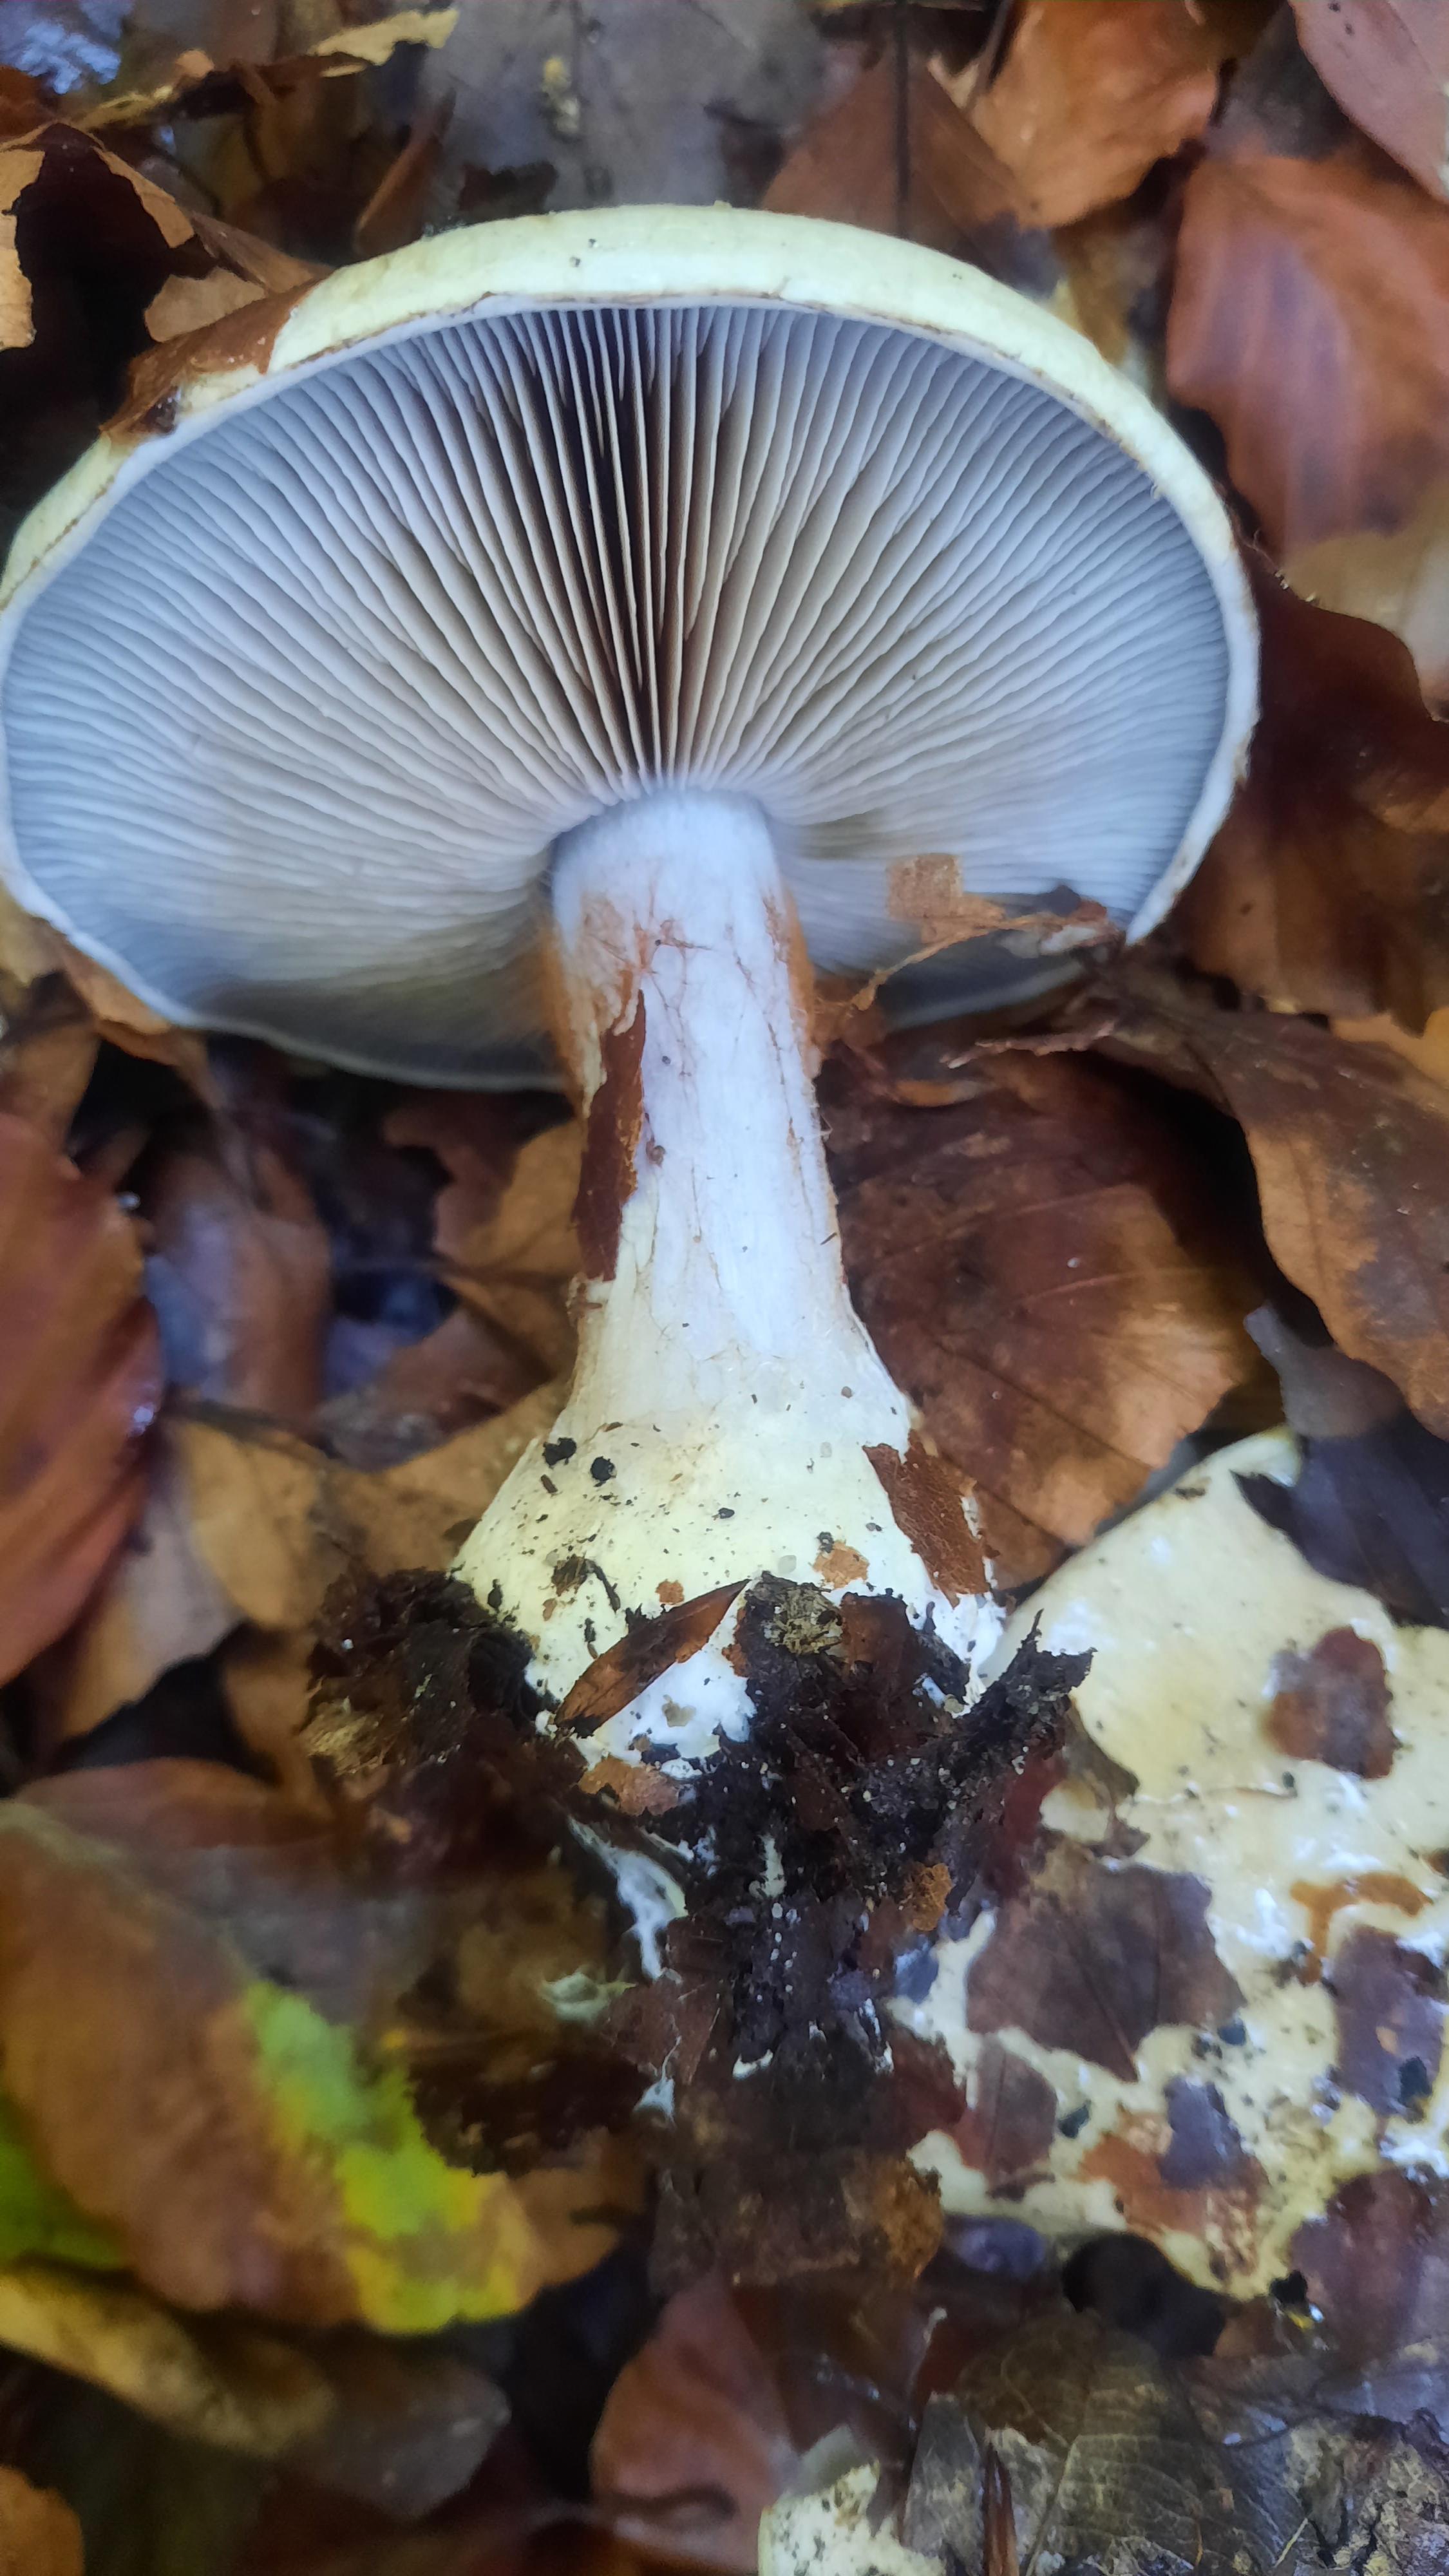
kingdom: Fungi
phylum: Basidiomycota
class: Agaricomycetes
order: Agaricales
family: Cortinariaceae
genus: Cortinarius
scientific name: Cortinarius
